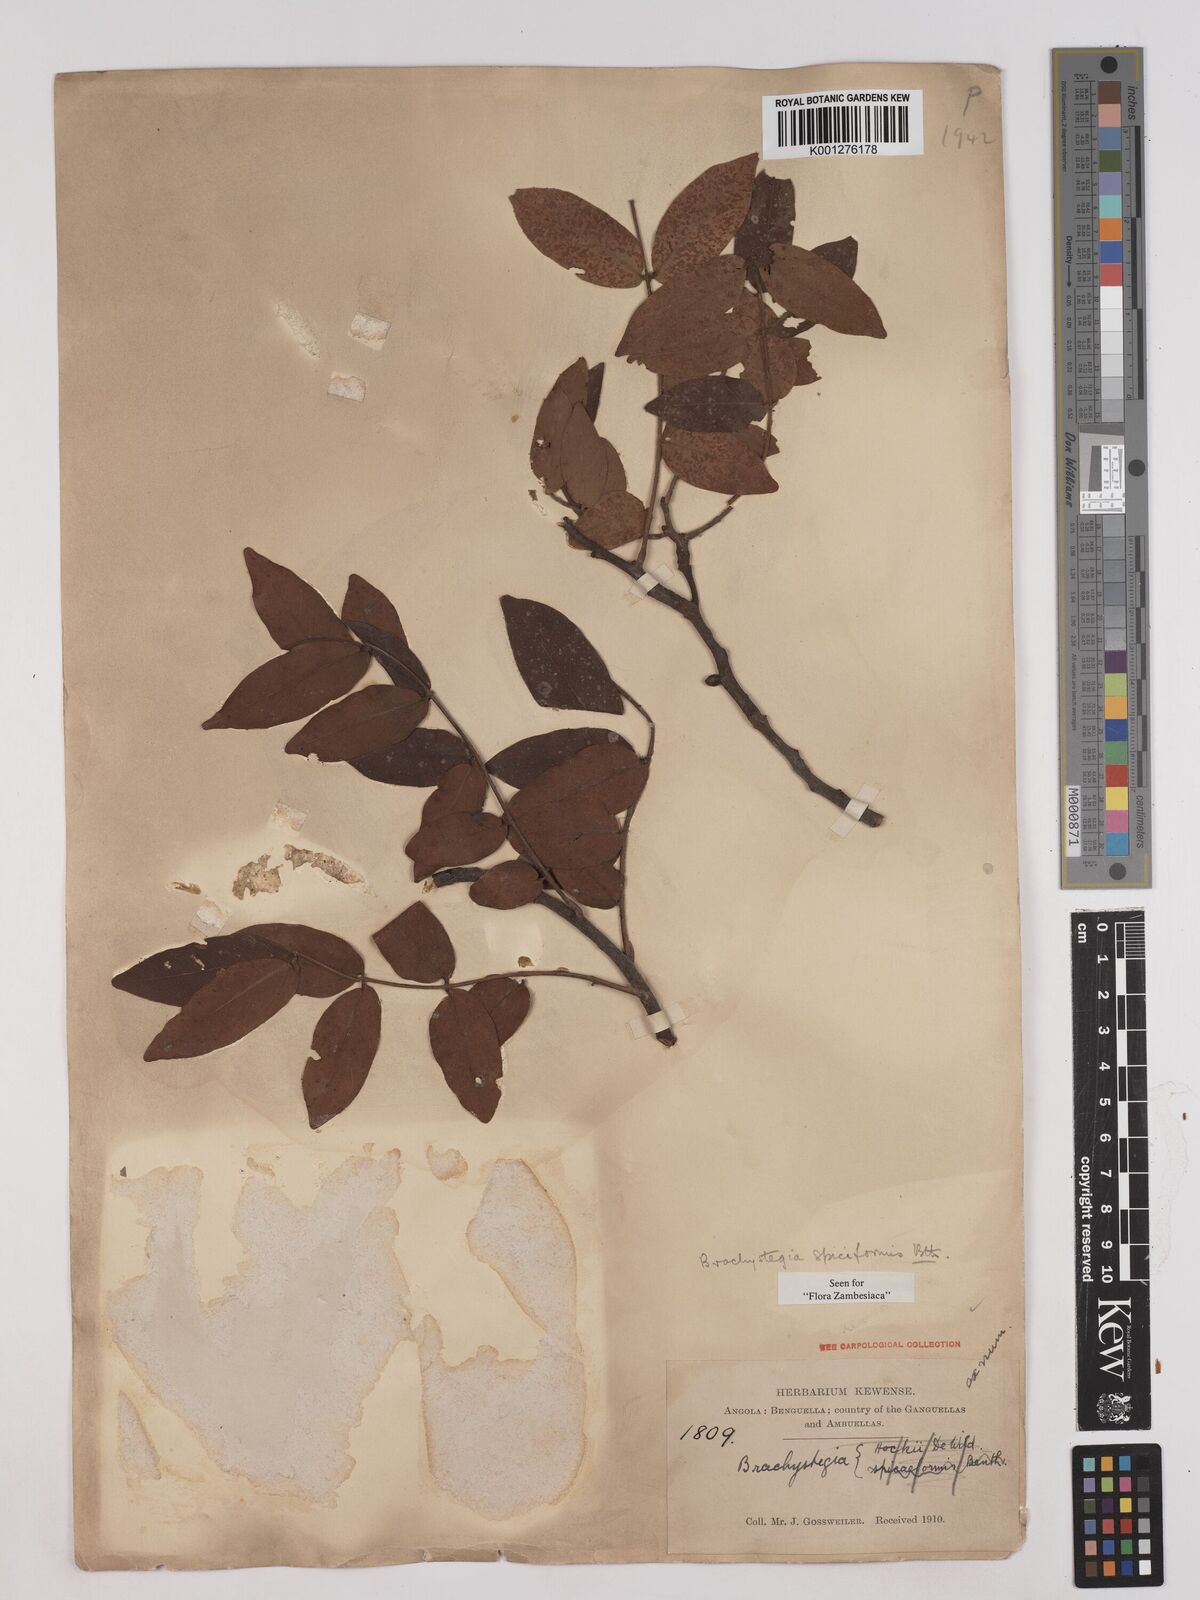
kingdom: Plantae
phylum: Tracheophyta
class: Magnoliopsida
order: Fabales
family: Fabaceae
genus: Brachystegia
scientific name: Brachystegia
